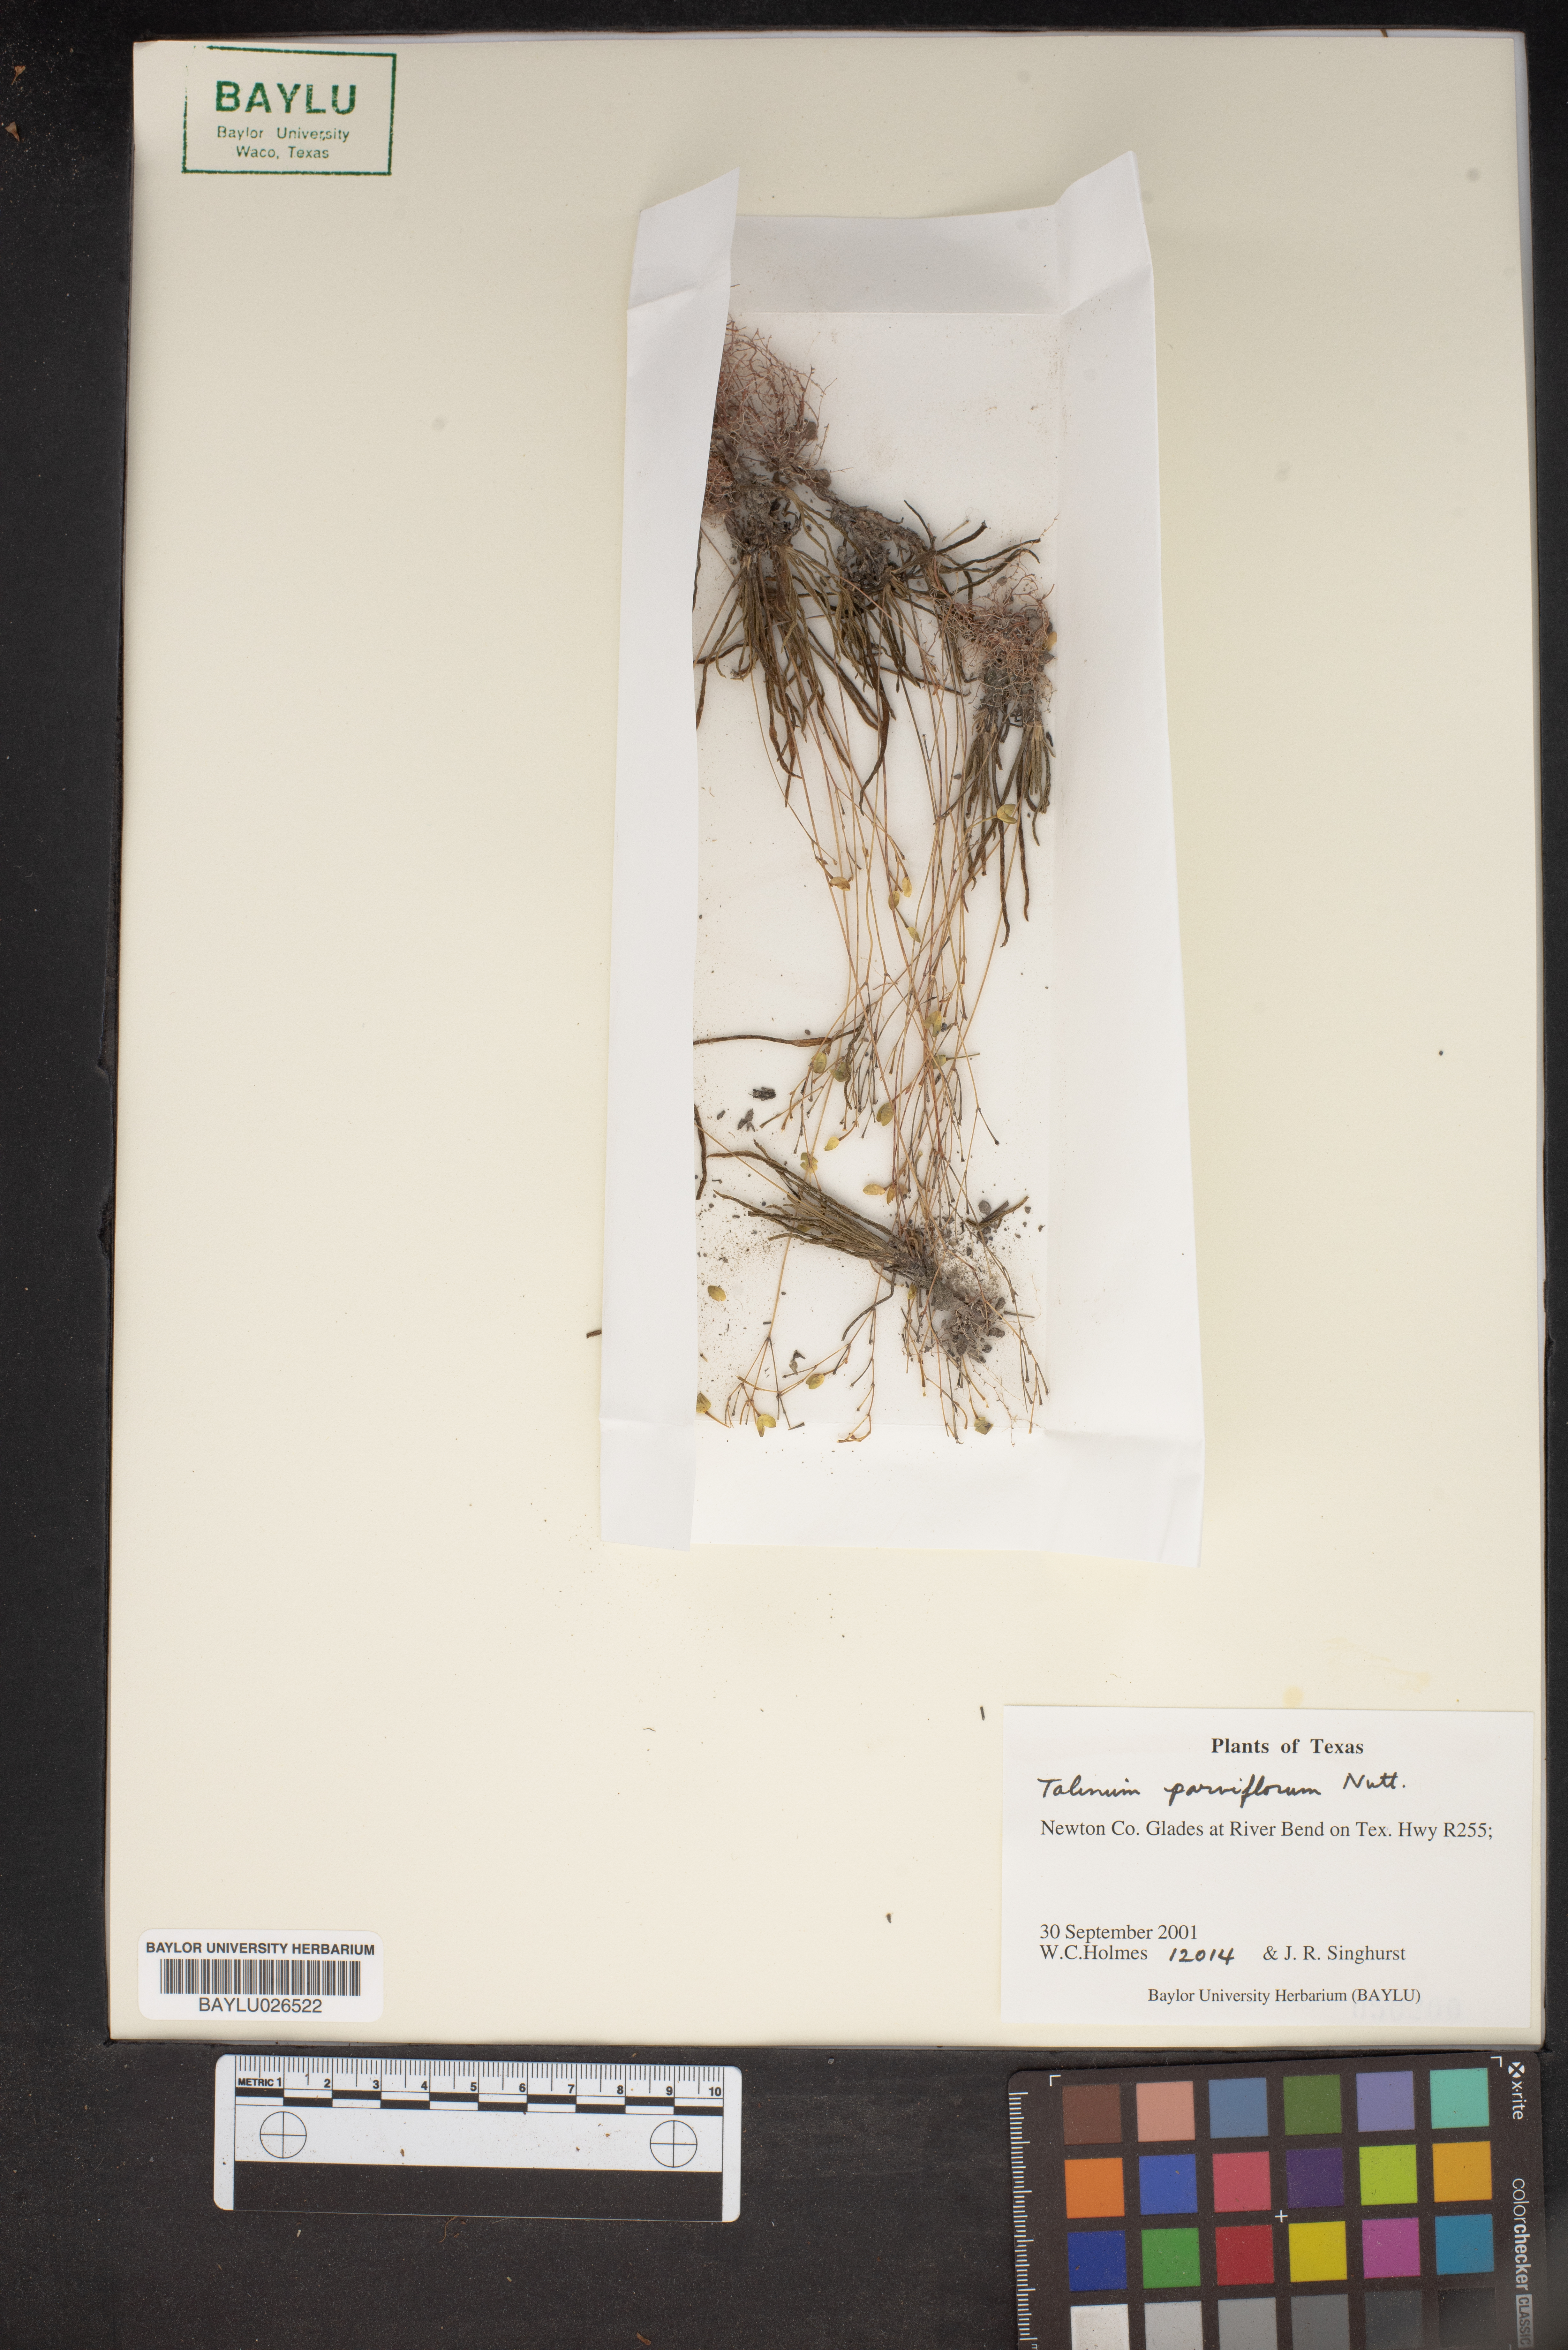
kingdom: Plantae
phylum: Tracheophyta
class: Magnoliopsida
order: Caryophyllales
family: Montiaceae
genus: Phemeranthus
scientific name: Phemeranthus parviflorus
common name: Sunbright
